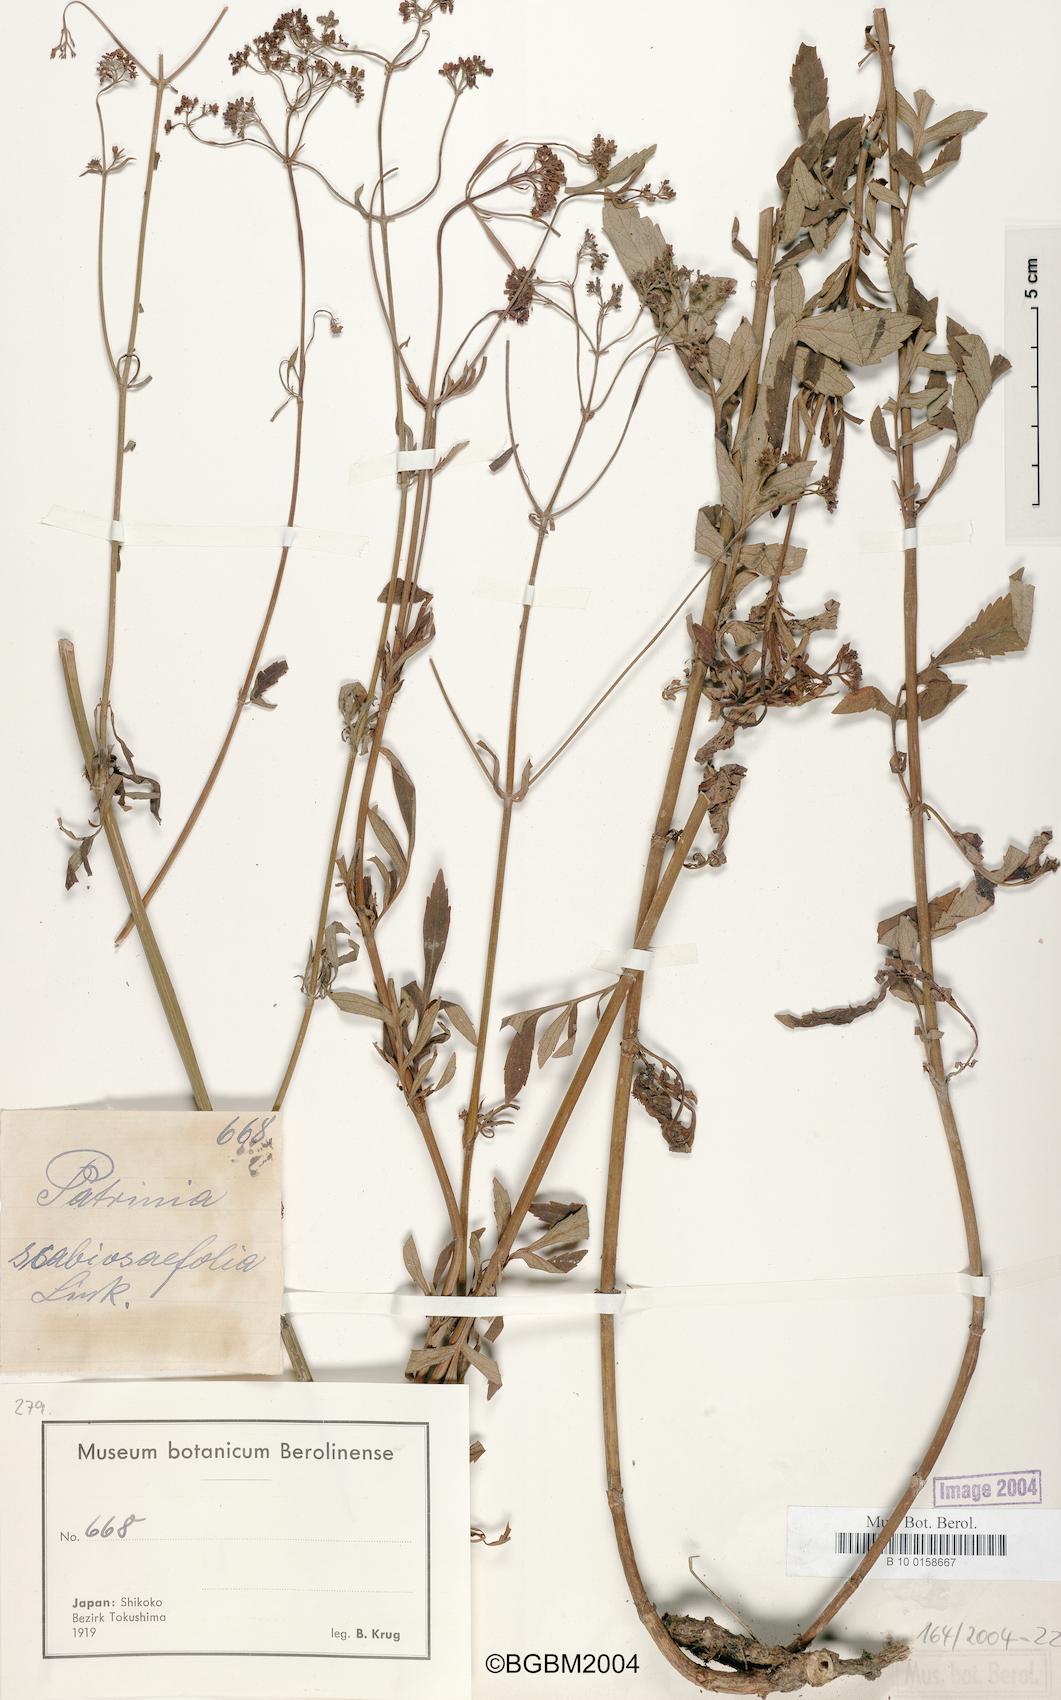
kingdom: Plantae
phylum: Tracheophyta
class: Magnoliopsida
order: Dipsacales
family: Caprifoliaceae
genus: Patrinia
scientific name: Patrinia scabiosifolia
